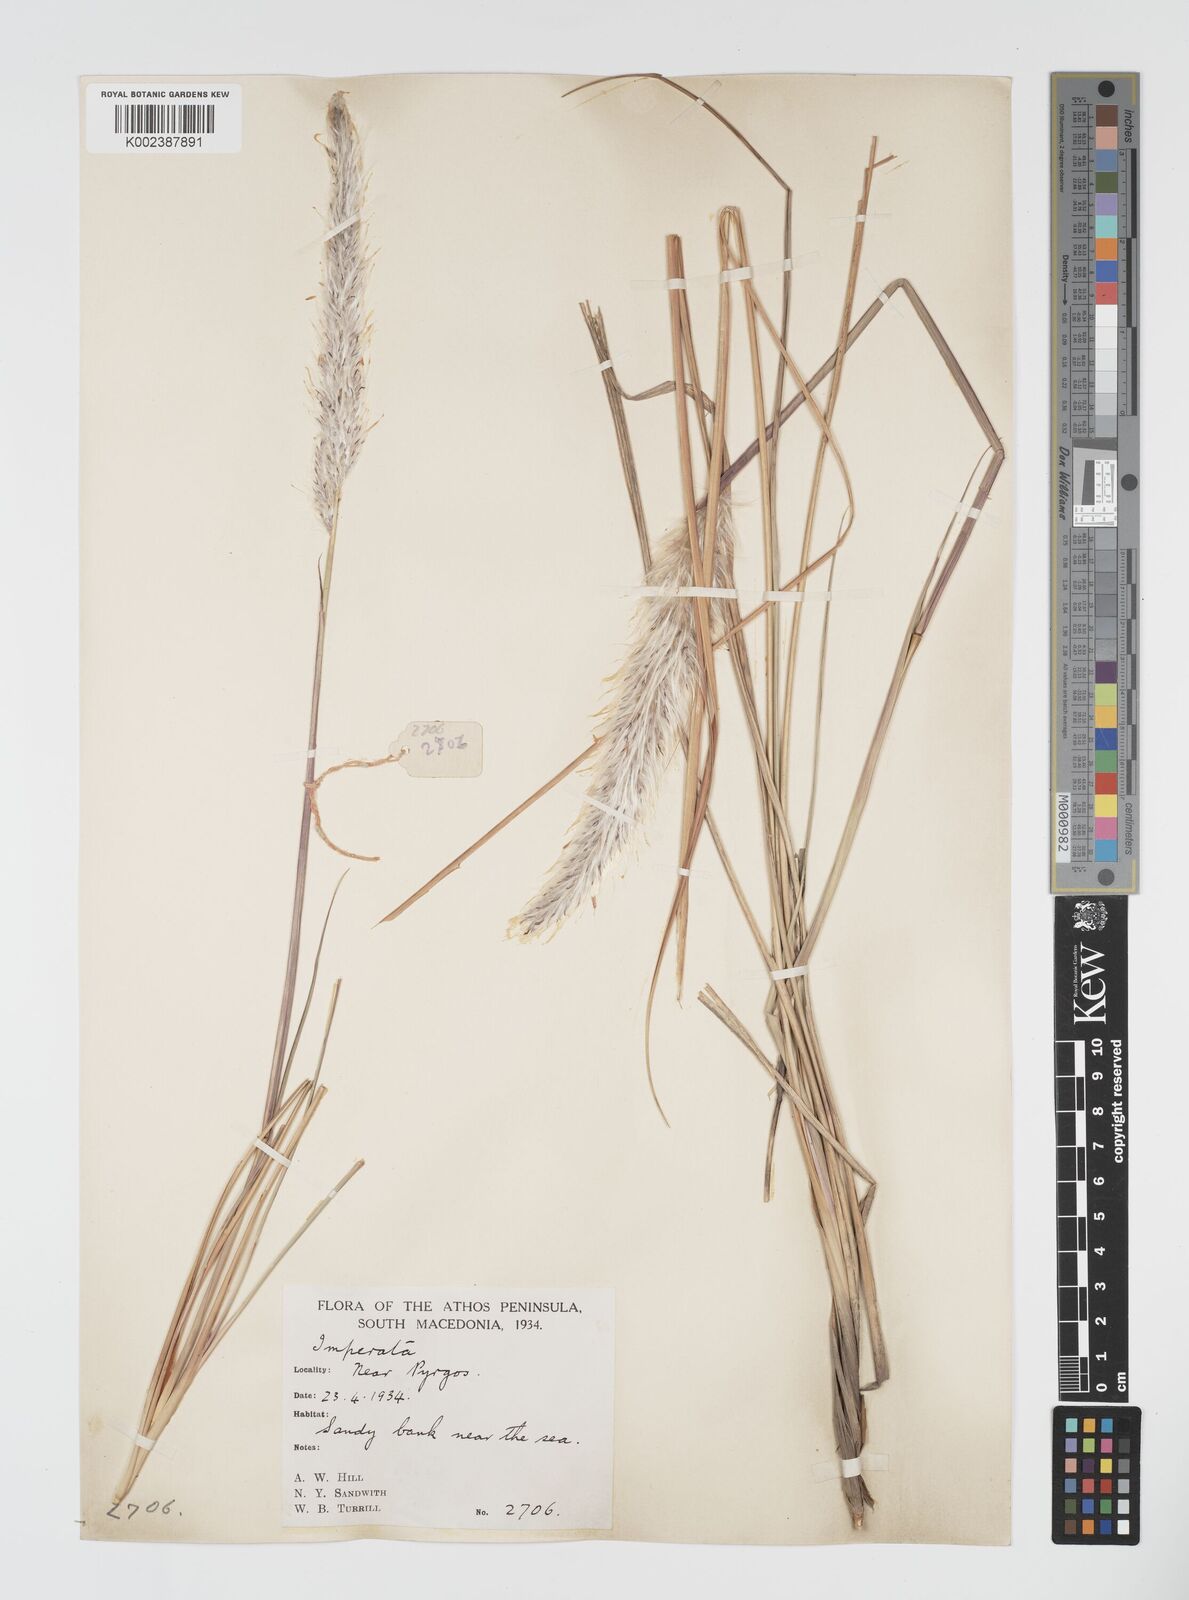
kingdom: Plantae
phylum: Tracheophyta
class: Liliopsida
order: Poales
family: Poaceae
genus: Imperata
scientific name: Imperata cylindrica
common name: Cogongrass
